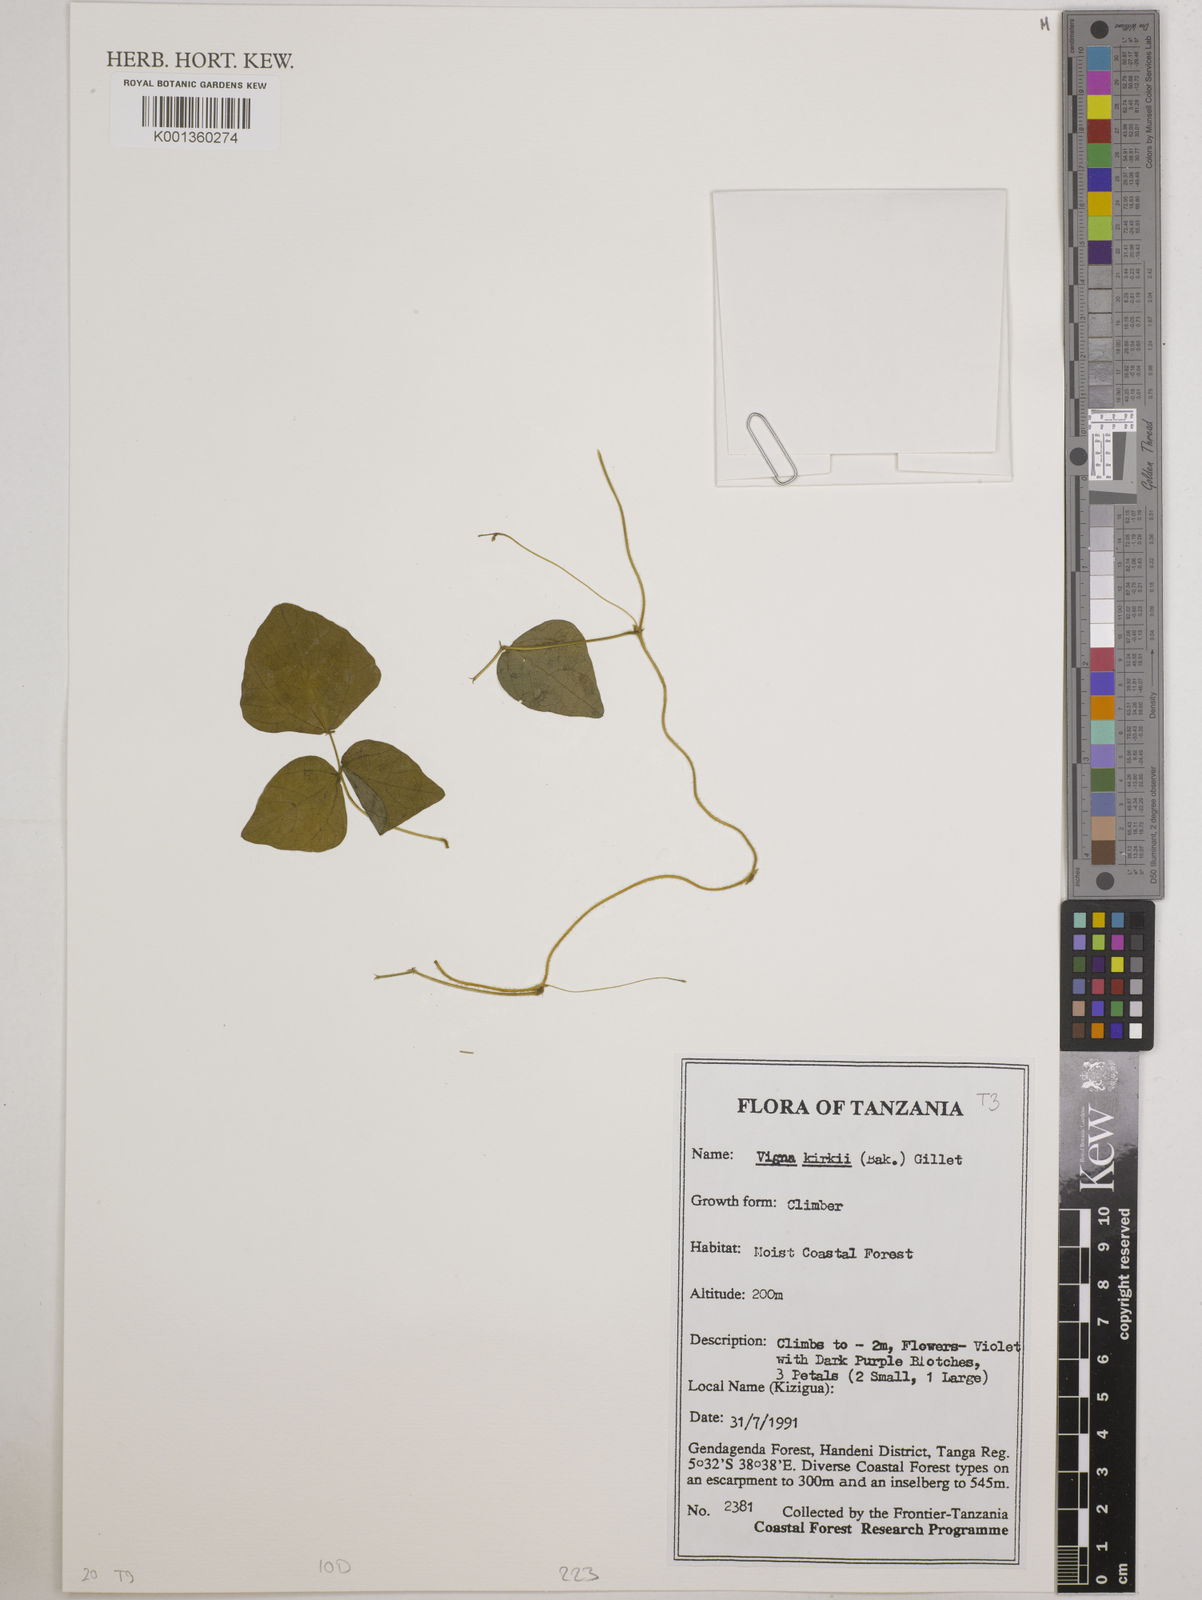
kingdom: Plantae
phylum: Tracheophyta
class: Magnoliopsida
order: Fabales
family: Fabaceae
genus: Vigna
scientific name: Vigna kirkii
